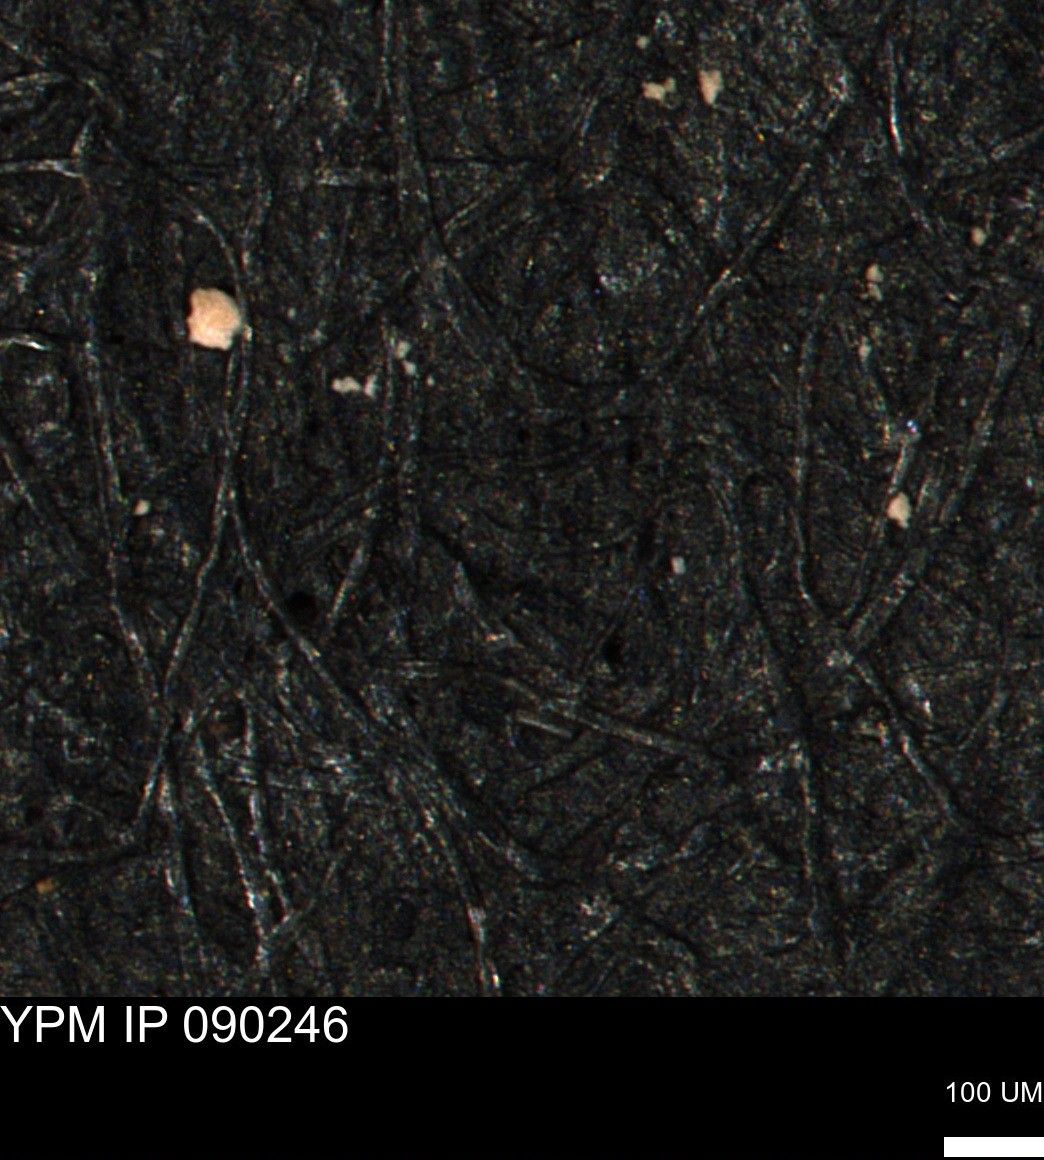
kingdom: Animalia
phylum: Mollusca
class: Bivalvia
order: Myalinida
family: Inoceramidae
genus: Inoceramus
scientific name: Inoceramus
